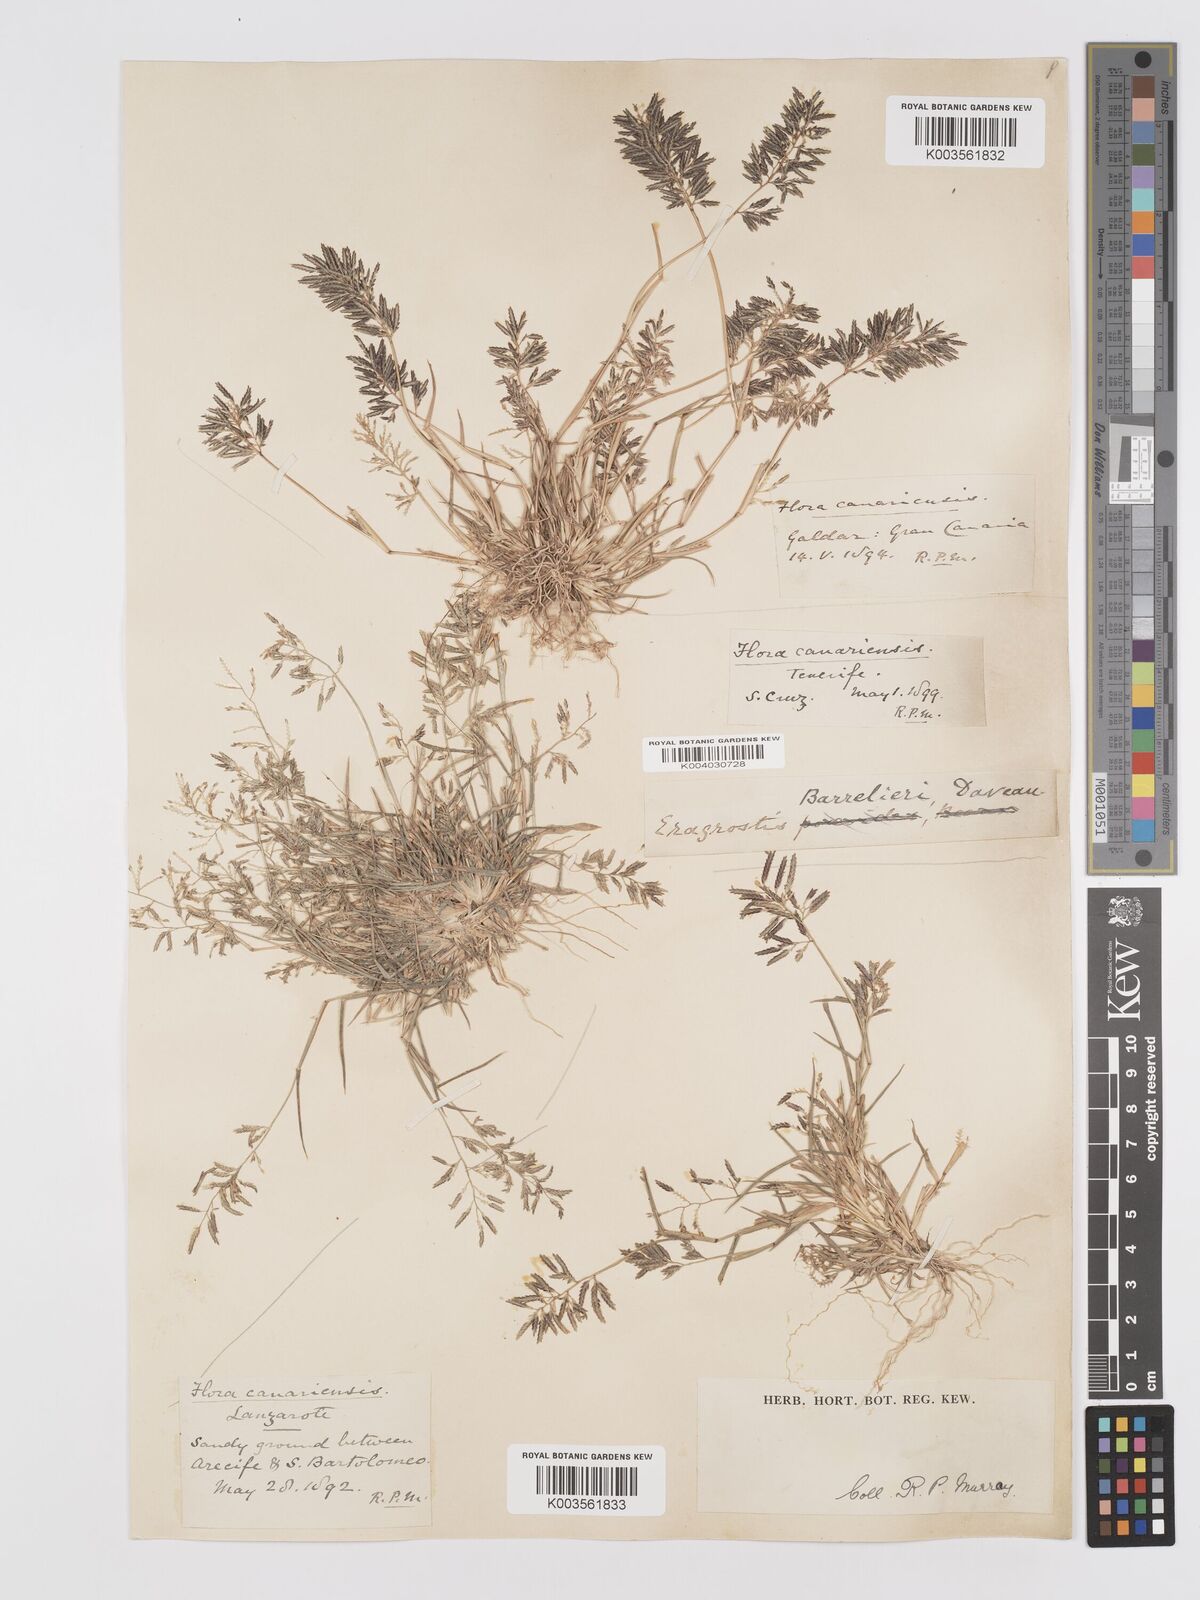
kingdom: Plantae
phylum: Tracheophyta
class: Liliopsida
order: Poales
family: Poaceae
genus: Eragrostis
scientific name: Eragrostis barrelieri
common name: Mediterranean lovegrass
